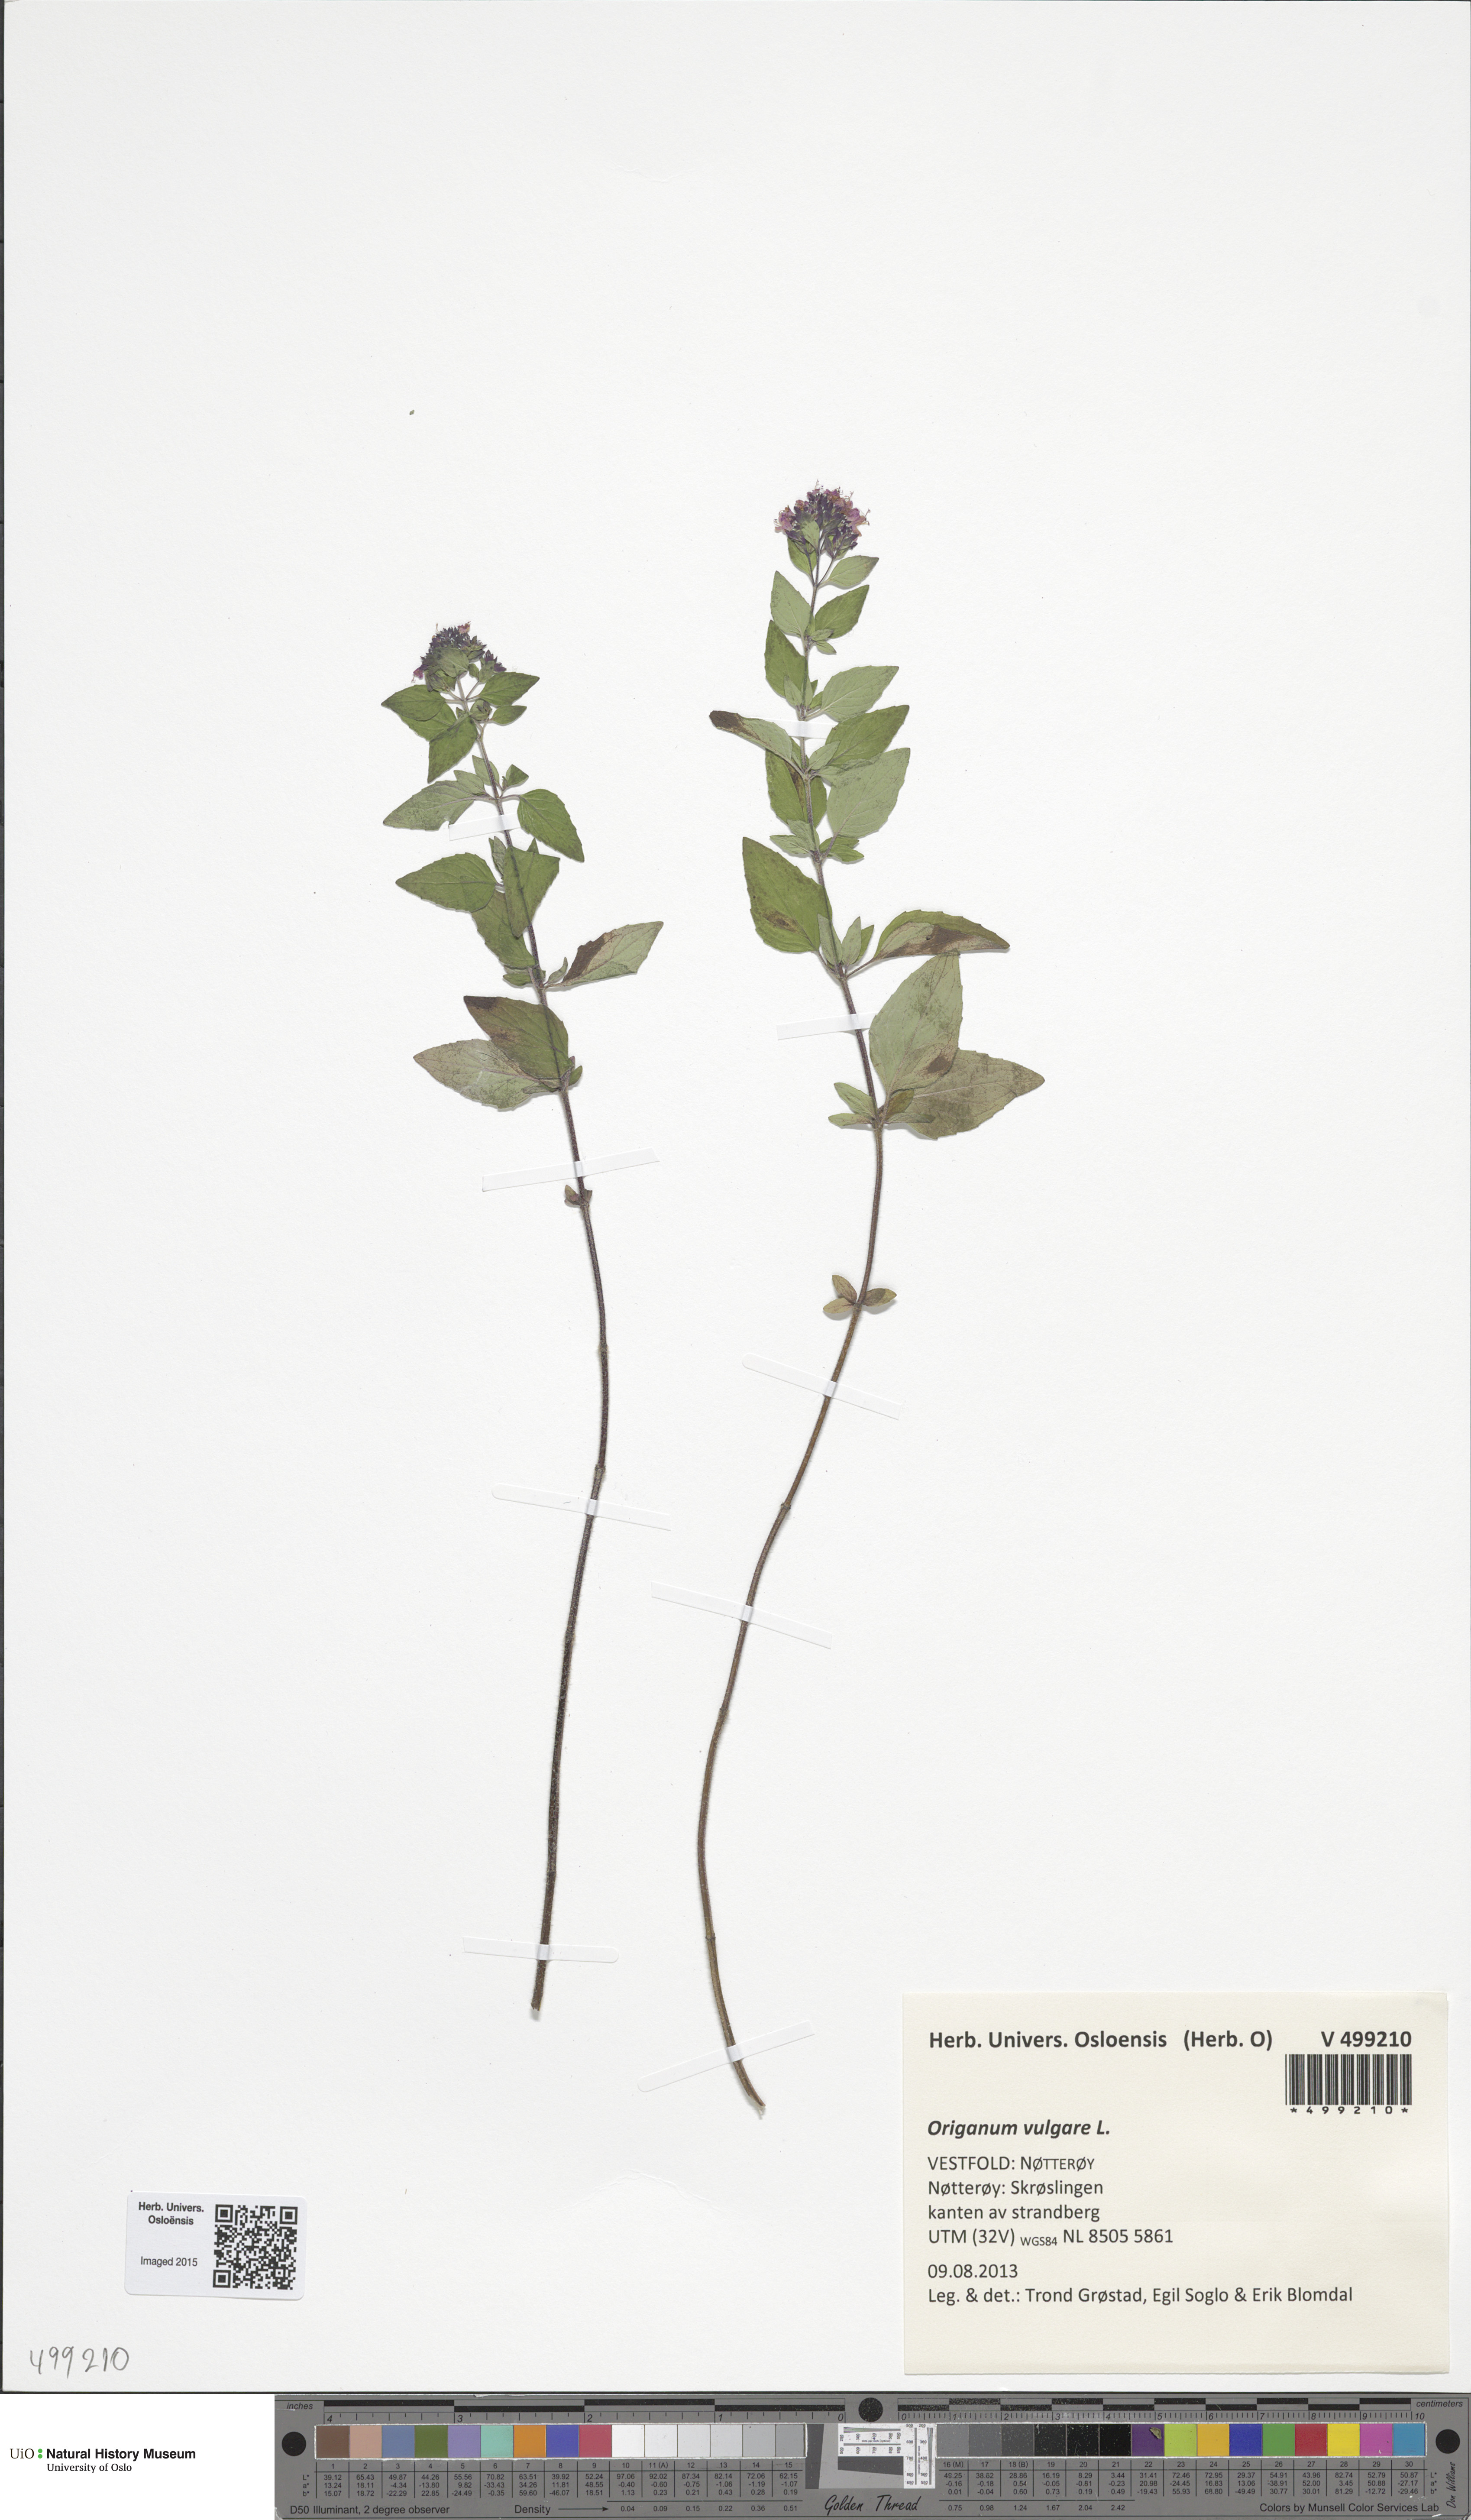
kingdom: Plantae
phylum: Tracheophyta
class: Magnoliopsida
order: Lamiales
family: Lamiaceae
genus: Origanum
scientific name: Origanum vulgare
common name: Wild marjoram
